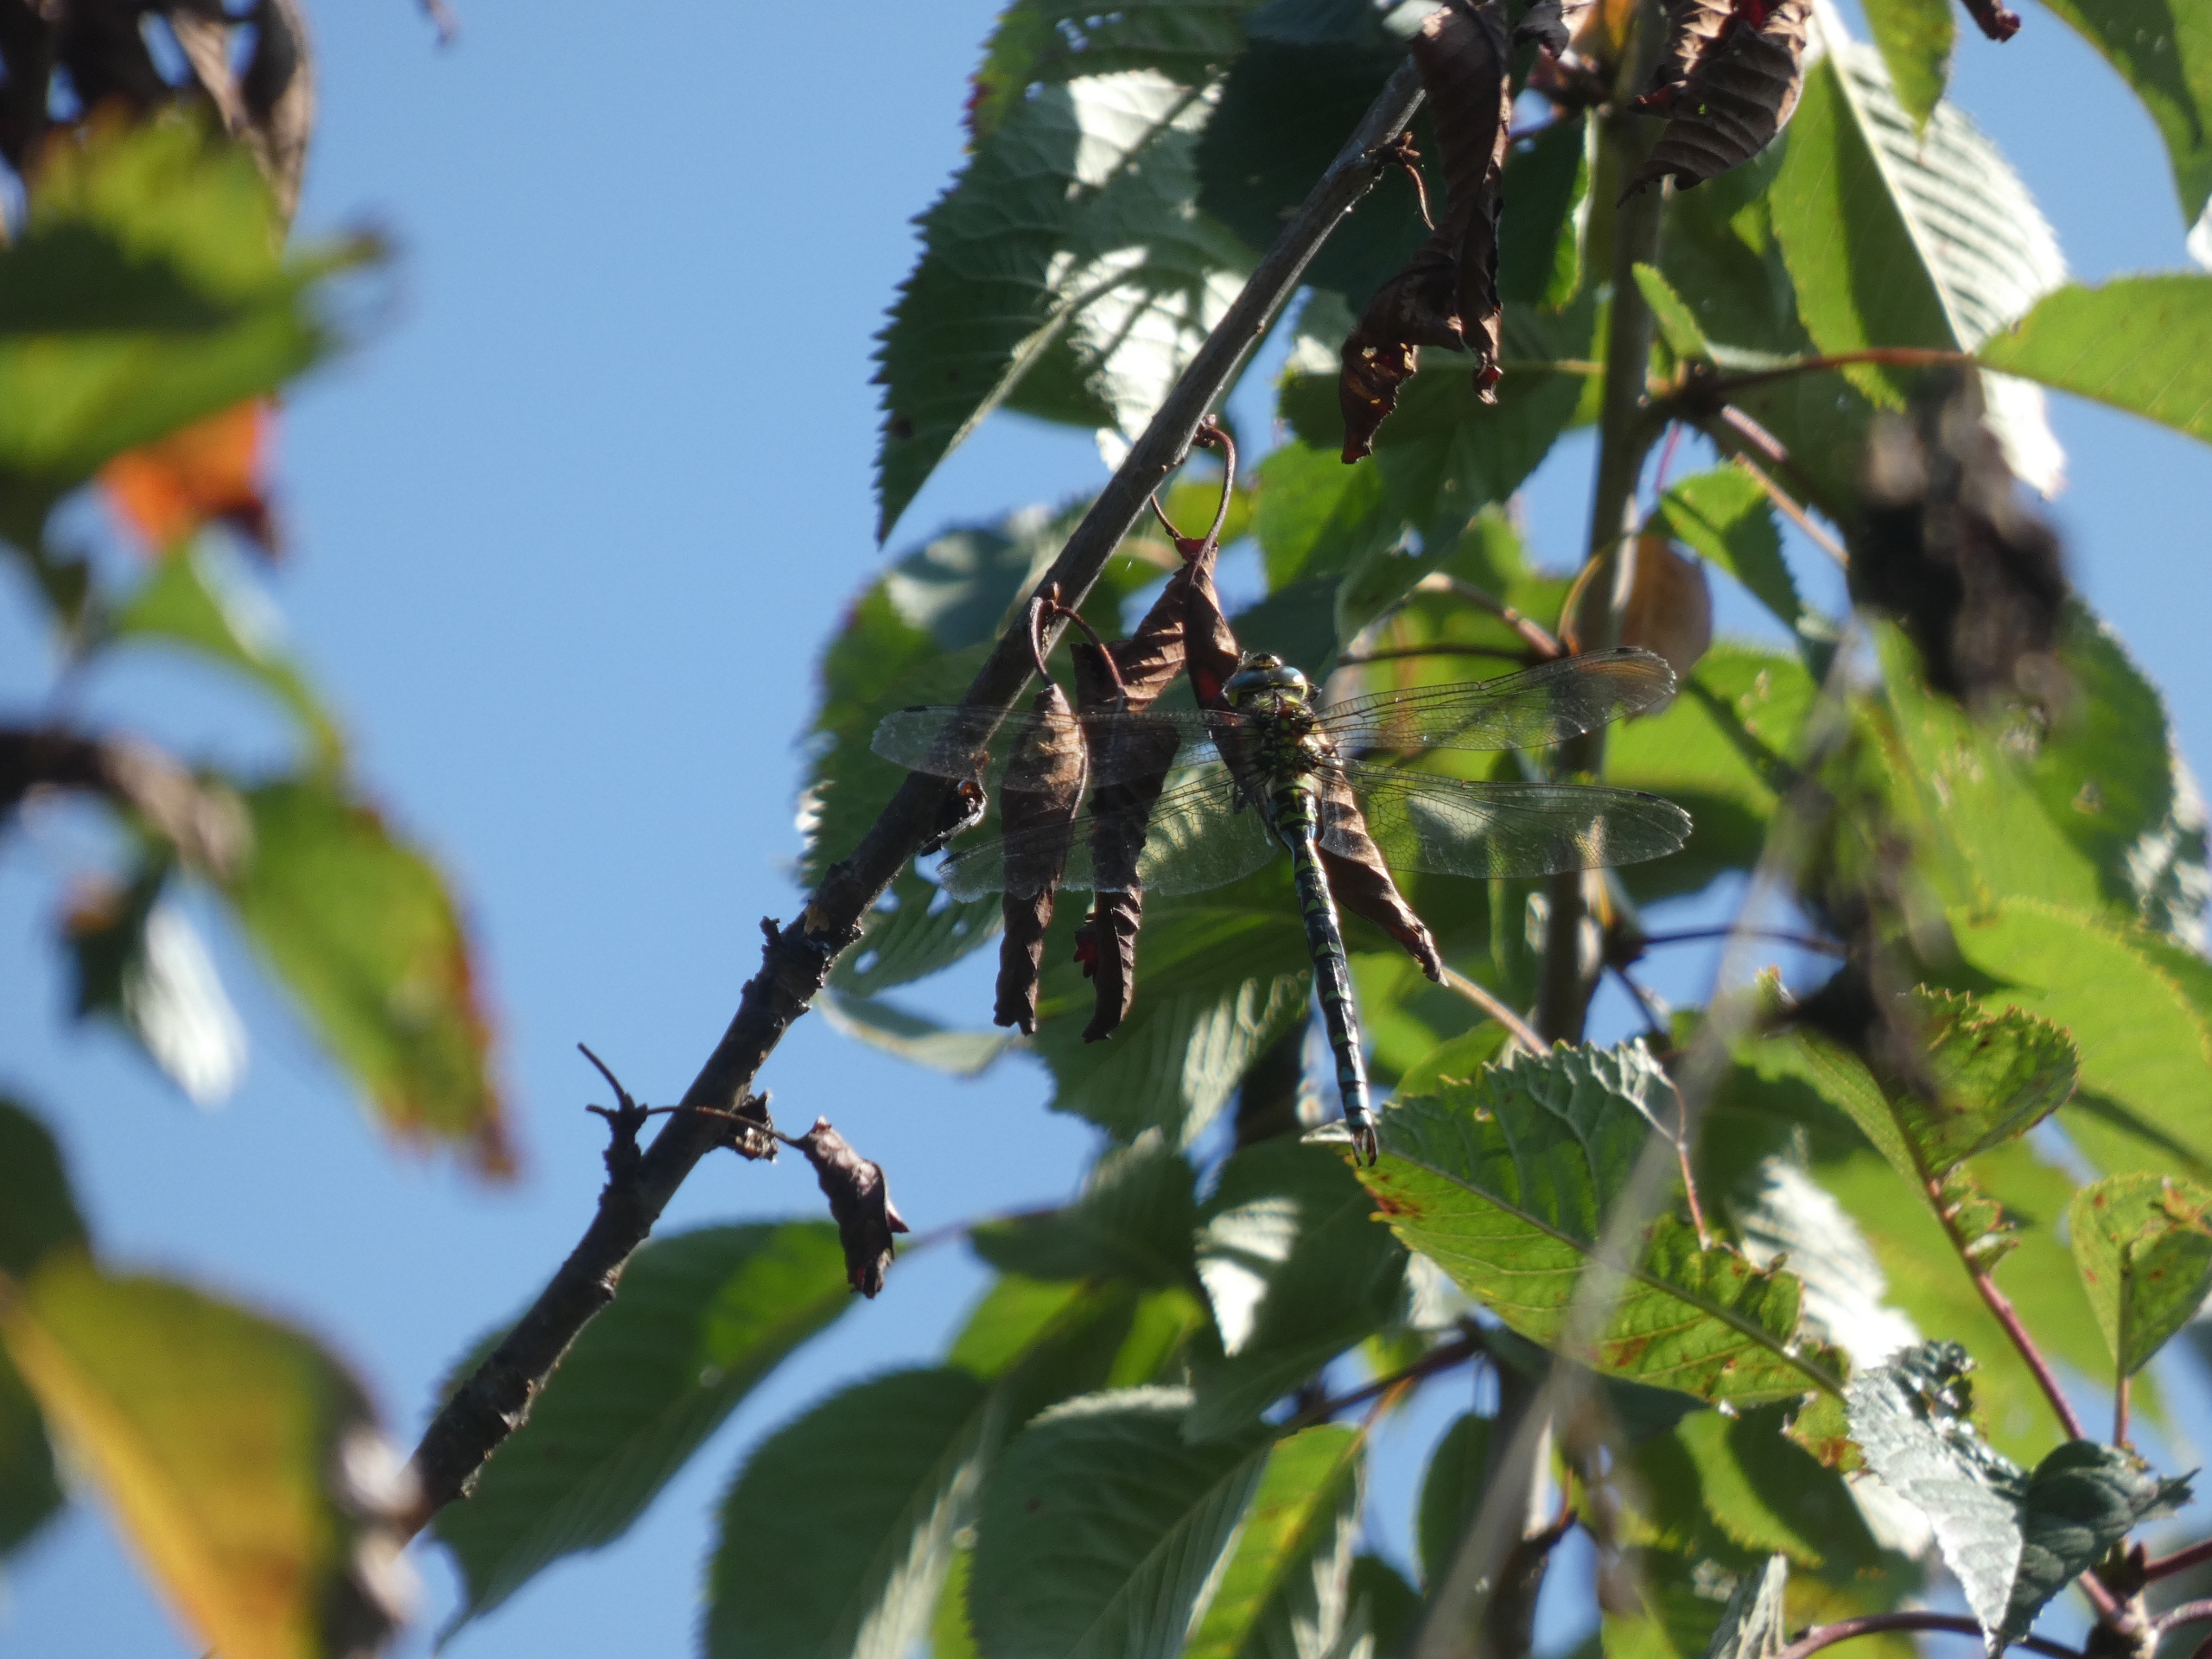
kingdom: Animalia
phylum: Arthropoda
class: Insecta
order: Odonata
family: Aeshnidae
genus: Aeshna
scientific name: Aeshna cyanea
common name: Blå mosaikguldsmed
